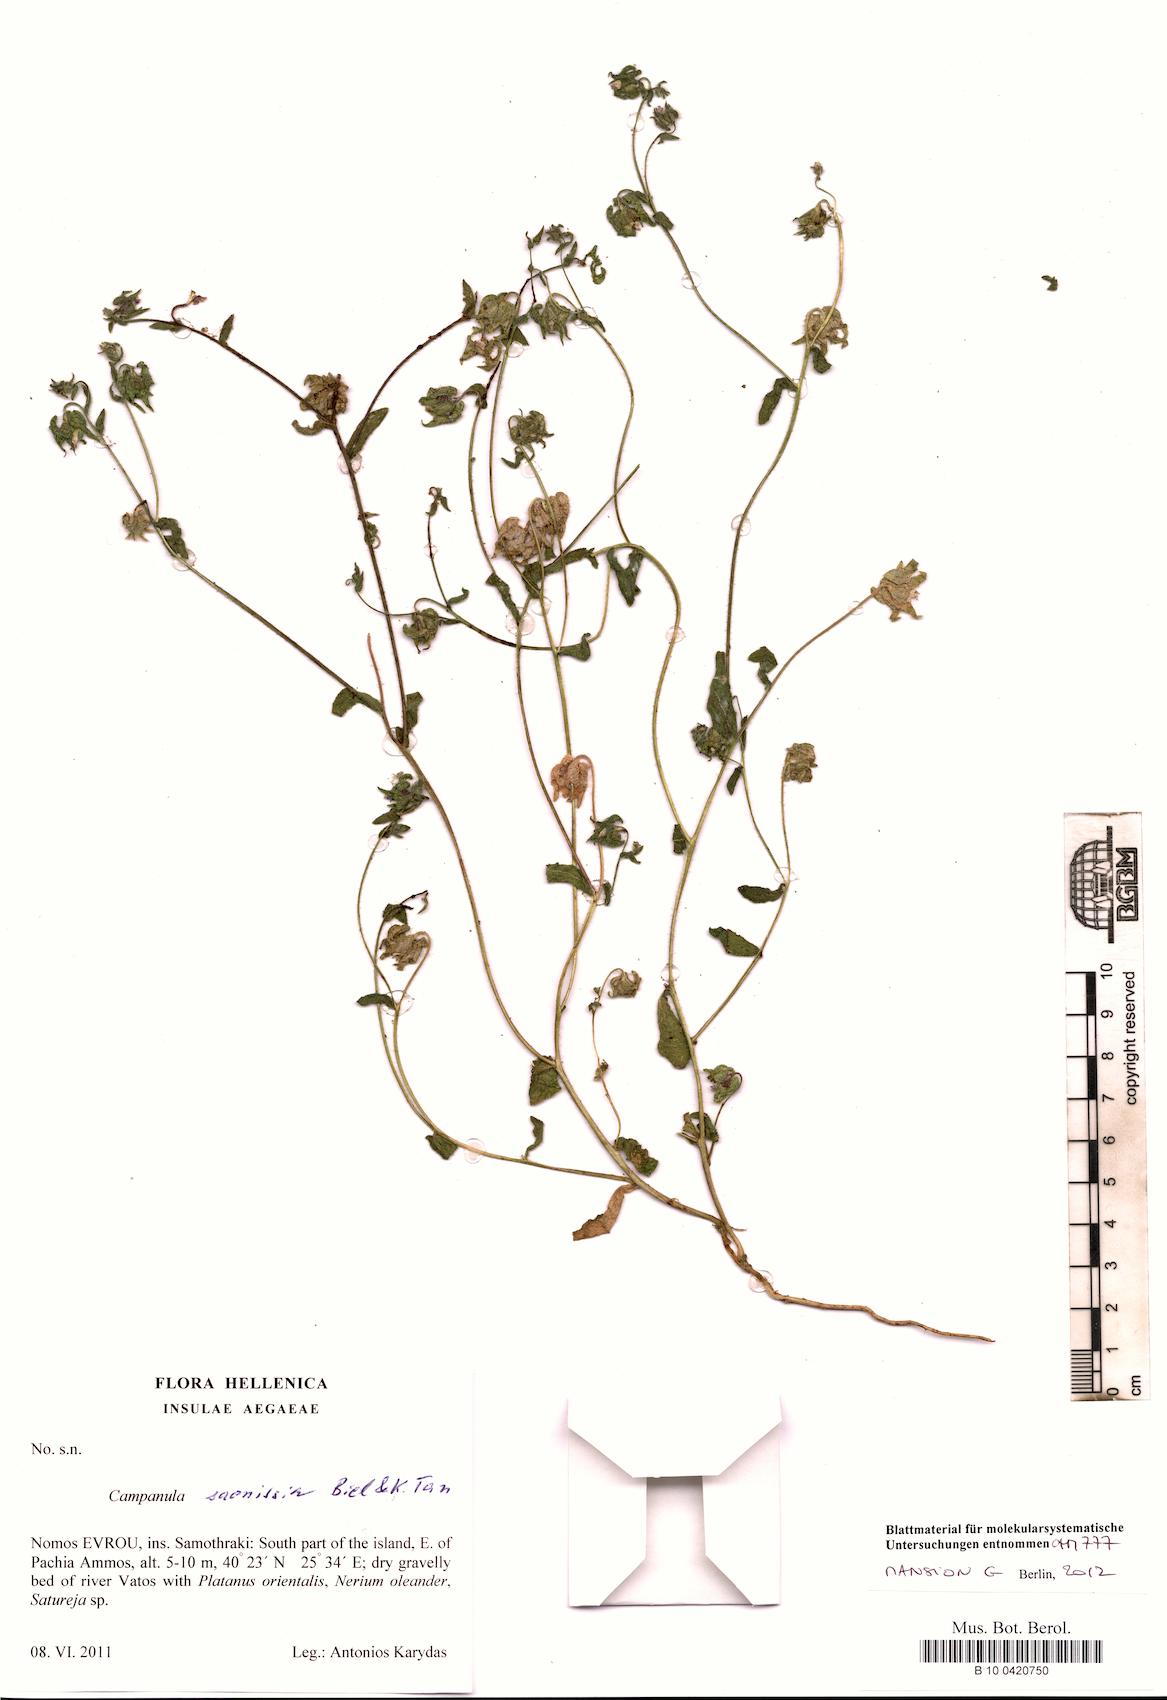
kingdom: Plantae
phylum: Tracheophyta
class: Magnoliopsida
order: Asterales
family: Campanulaceae
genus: Campanula
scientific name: Campanula saonissia
